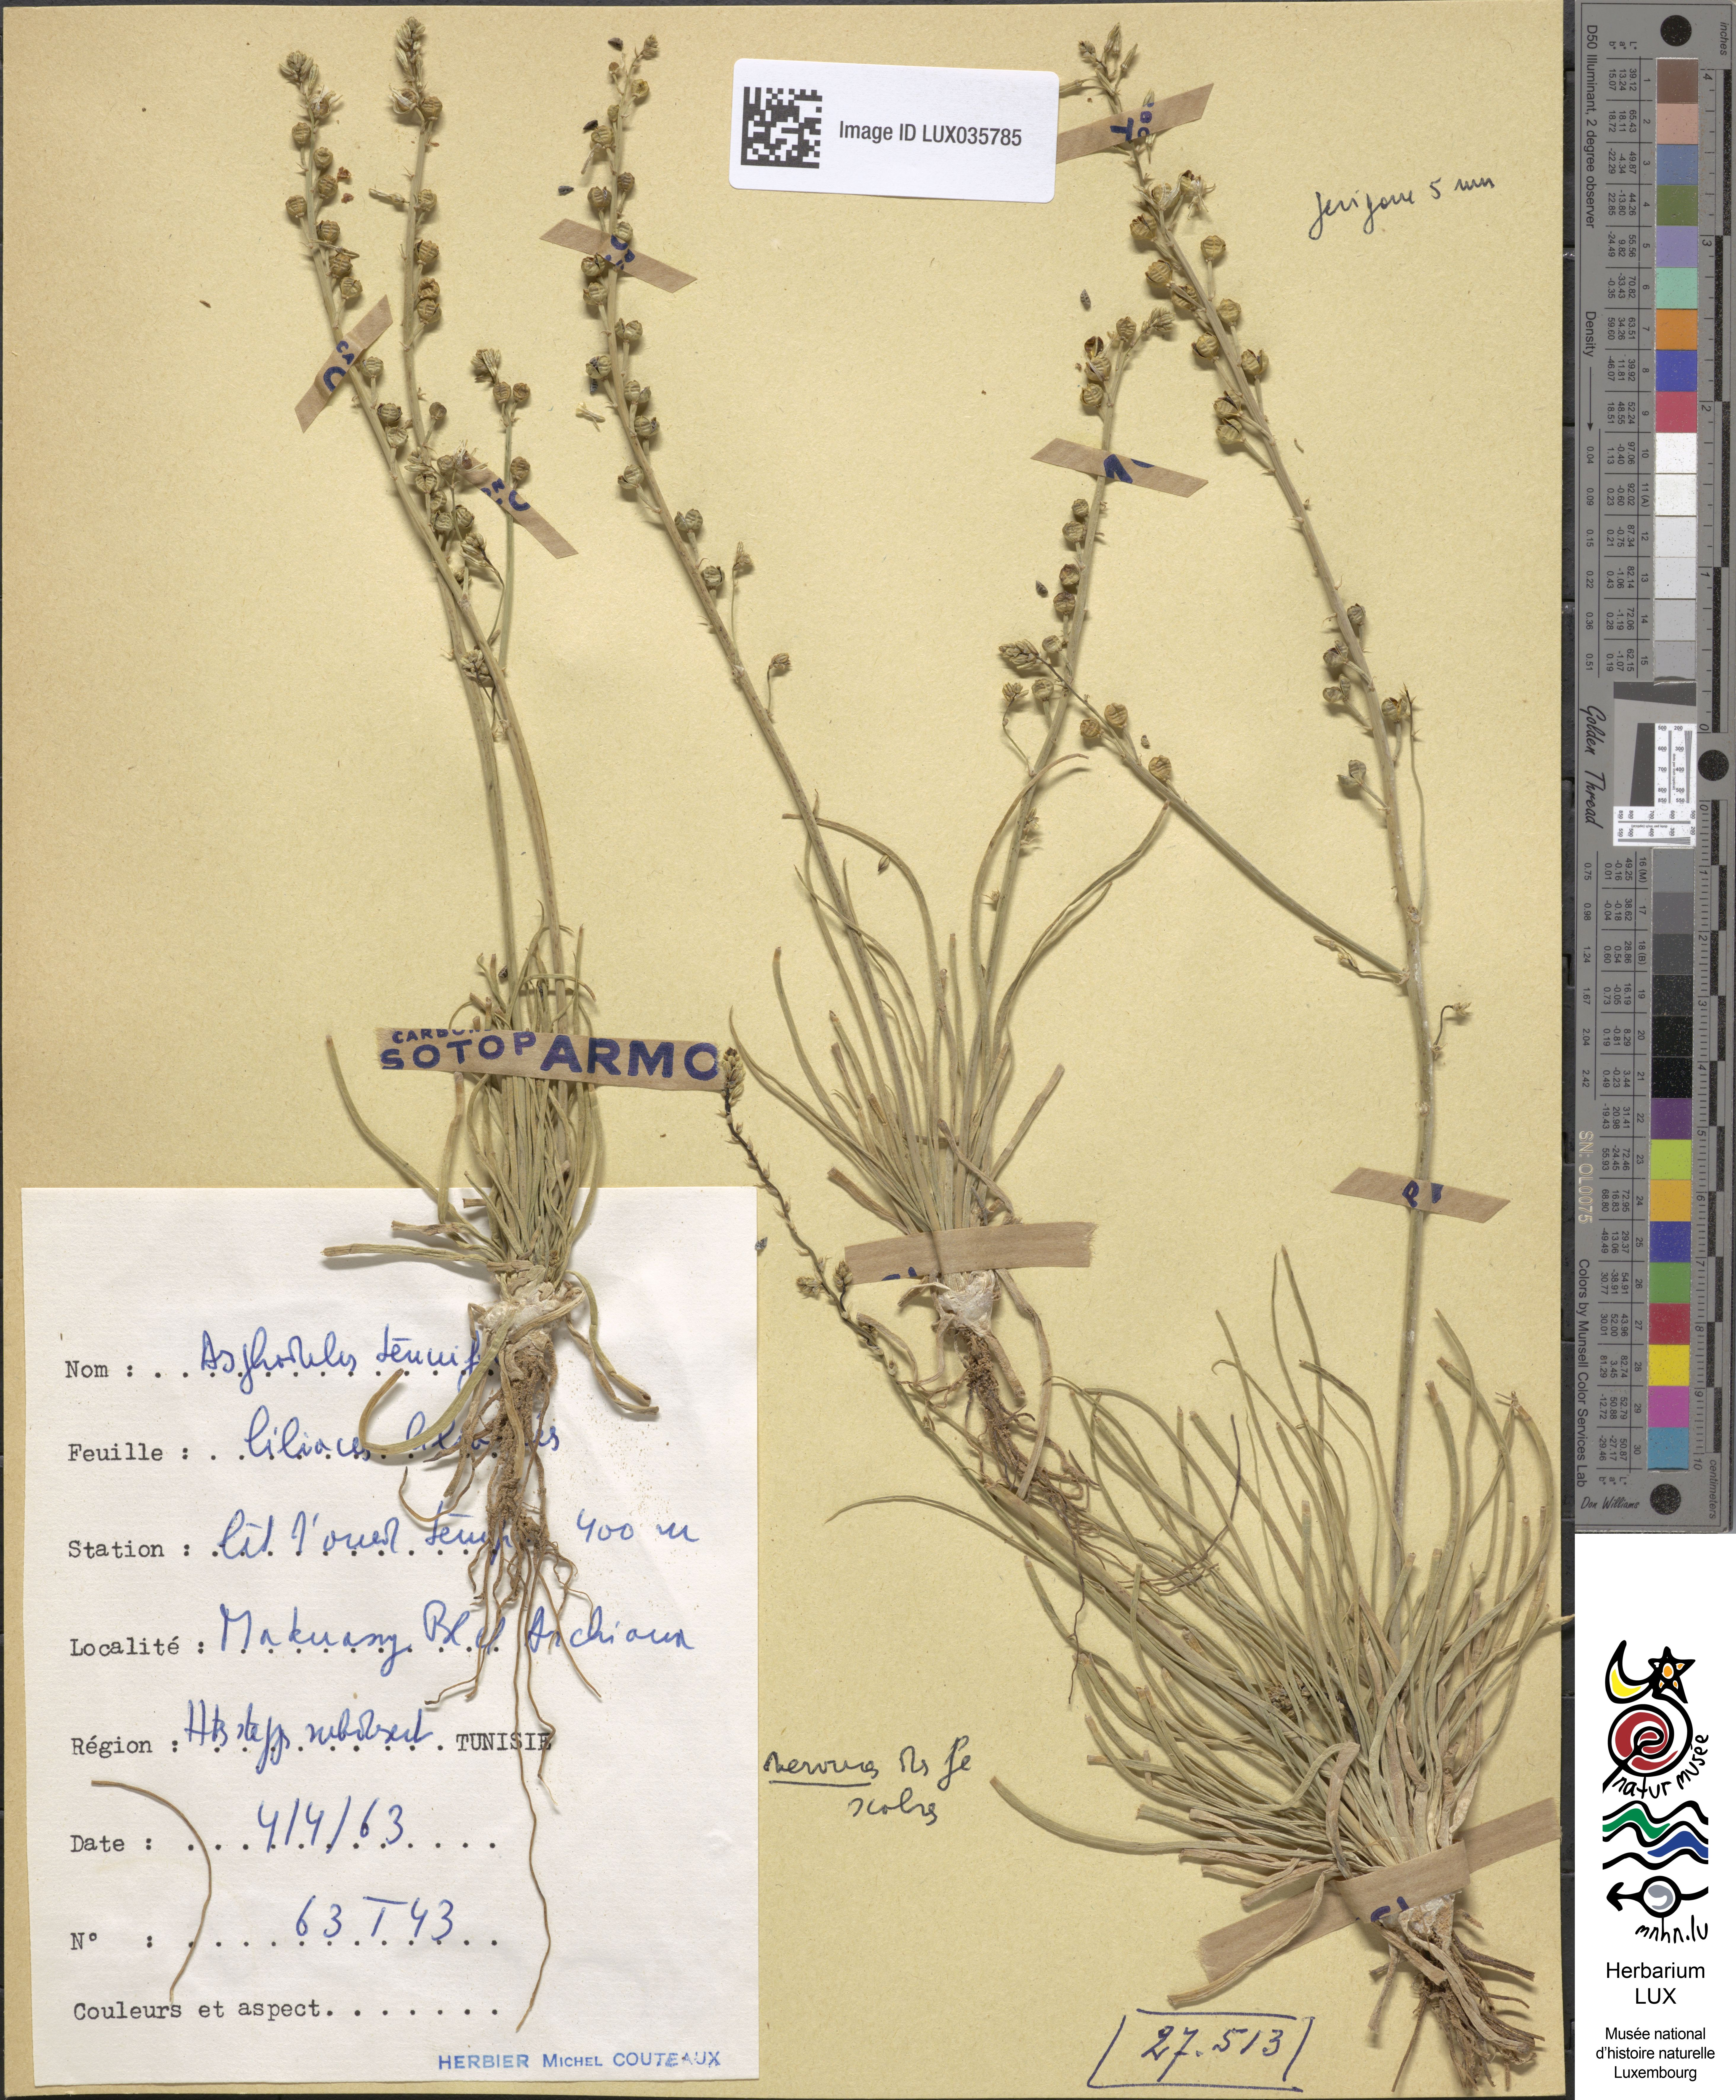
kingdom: Plantae
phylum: Tracheophyta
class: Liliopsida
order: Asparagales
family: Asphodelaceae
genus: Asphodelus
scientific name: Asphodelus tenuifolius
